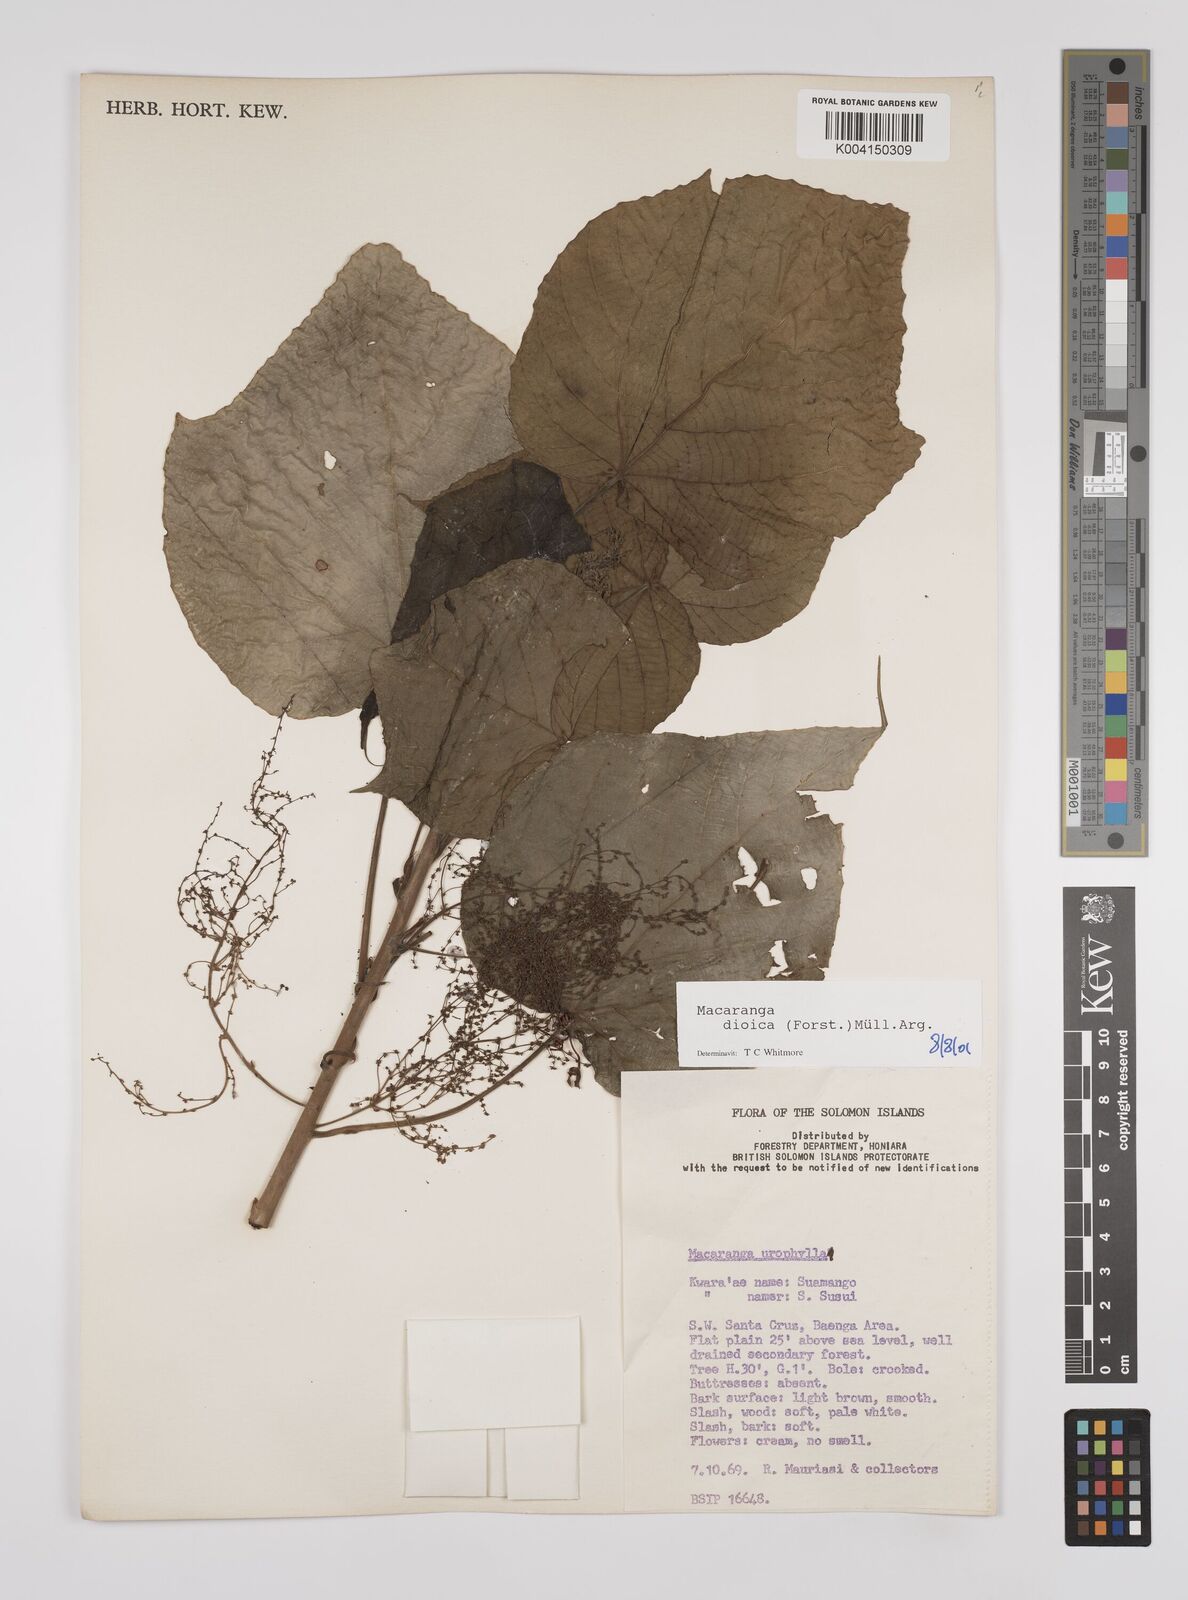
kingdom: Plantae
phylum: Tracheophyta
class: Magnoliopsida
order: Malpighiales
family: Euphorbiaceae
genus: Macaranga
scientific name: Macaranga dioica
